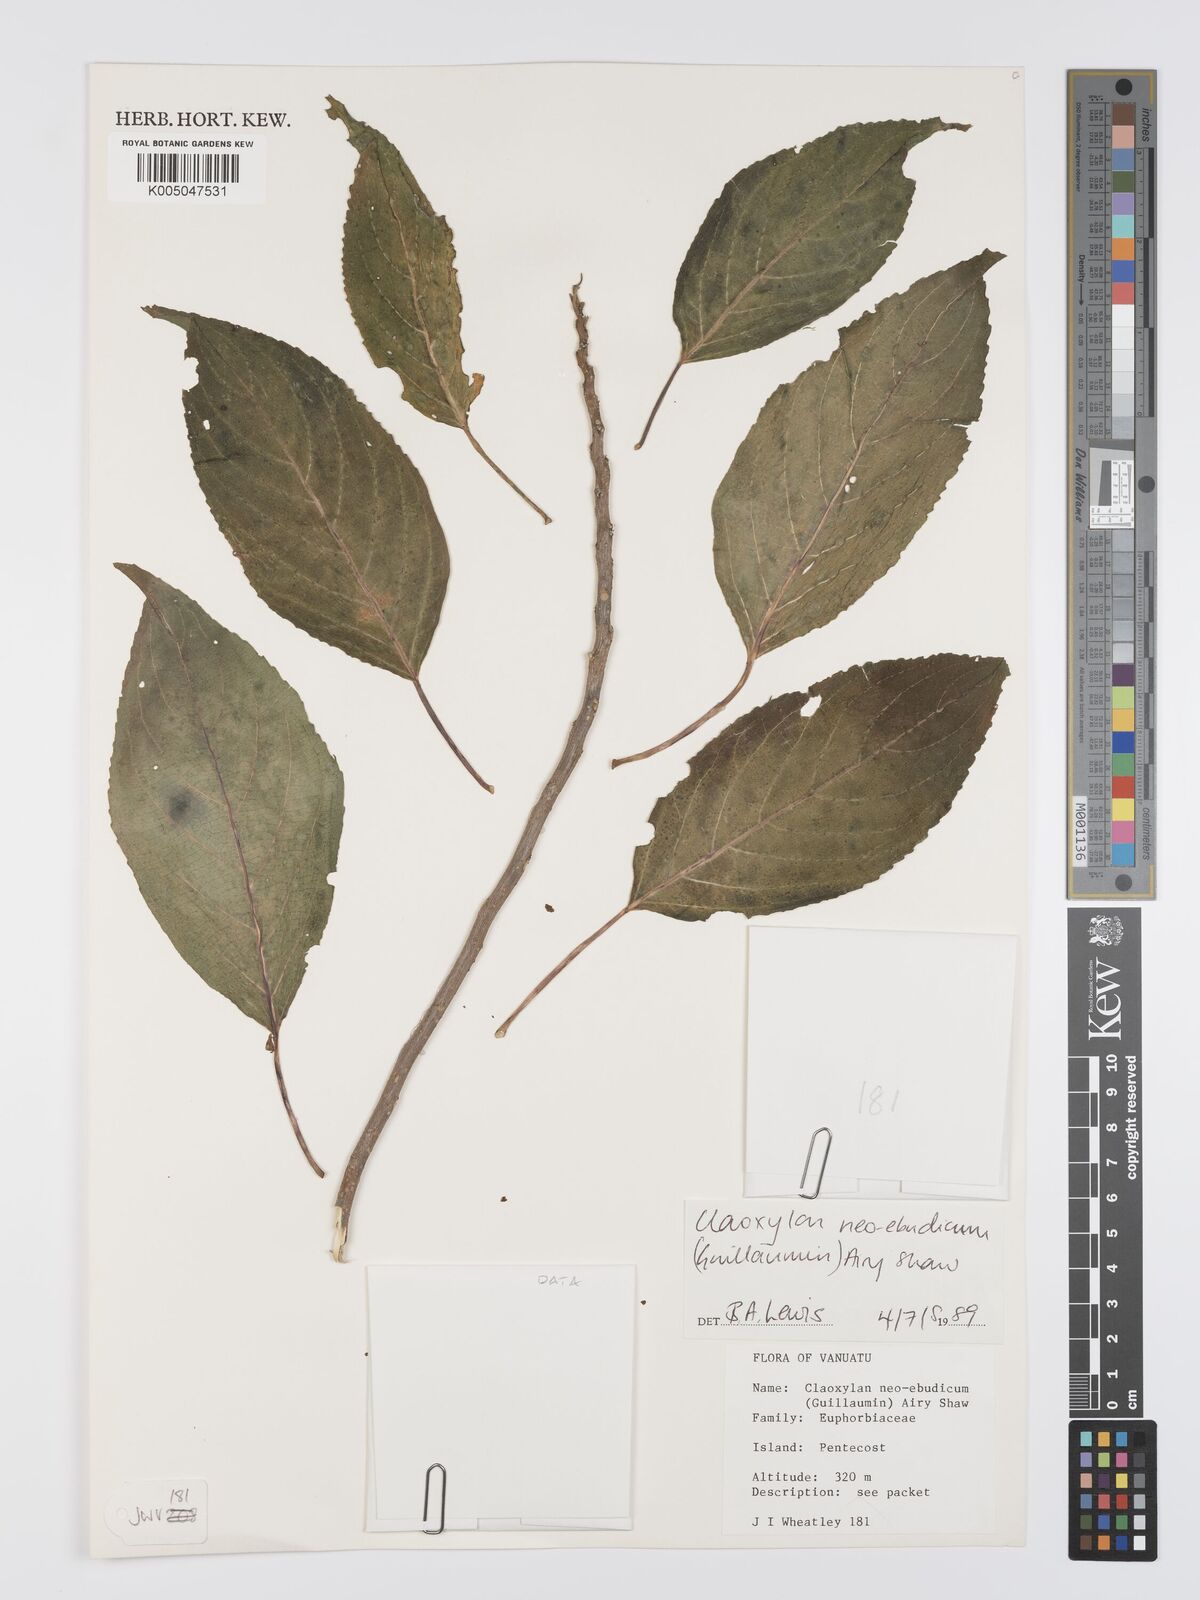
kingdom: Plantae
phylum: Tracheophyta
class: Magnoliopsida
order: Malpighiales
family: Euphorbiaceae
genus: Claoxylon
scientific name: Claoxylon neoebudicum
